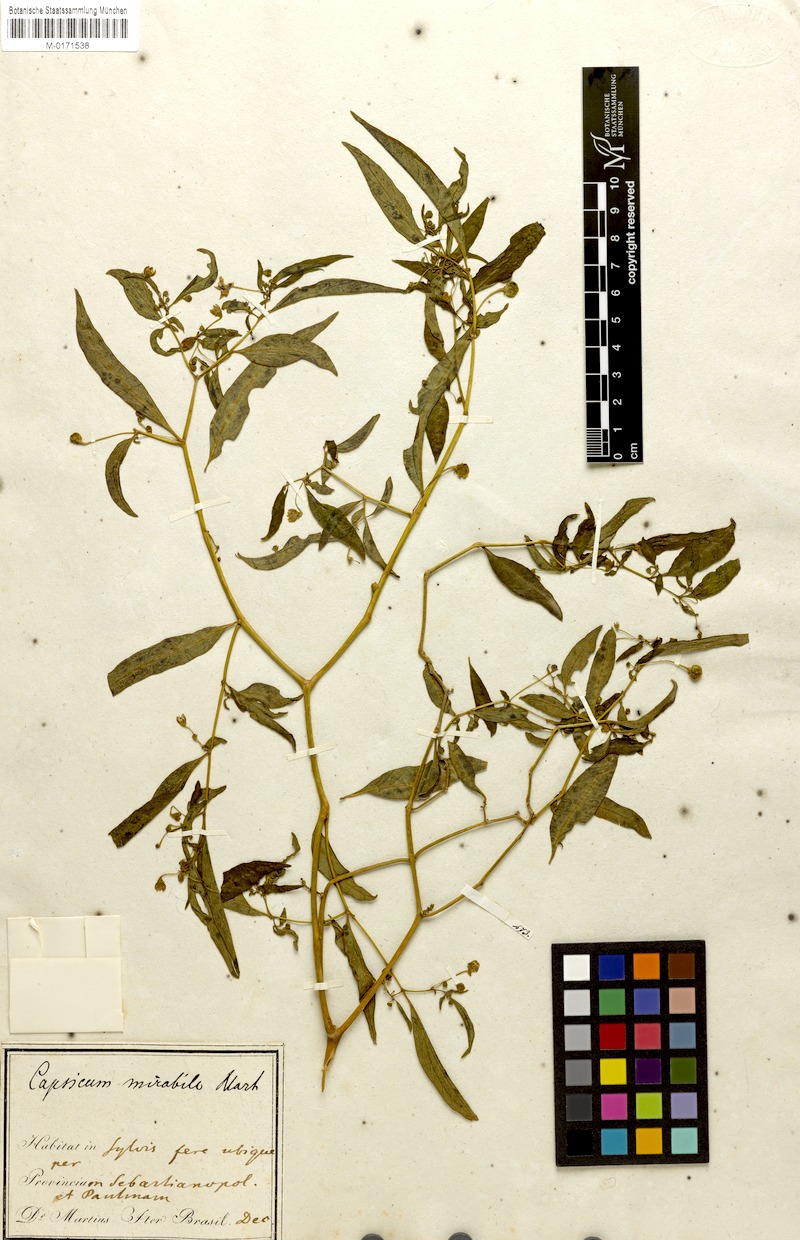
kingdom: Plantae
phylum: Tracheophyta
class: Magnoliopsida
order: Solanales
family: Solanaceae
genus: Capsicum
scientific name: Capsicum mirabile
